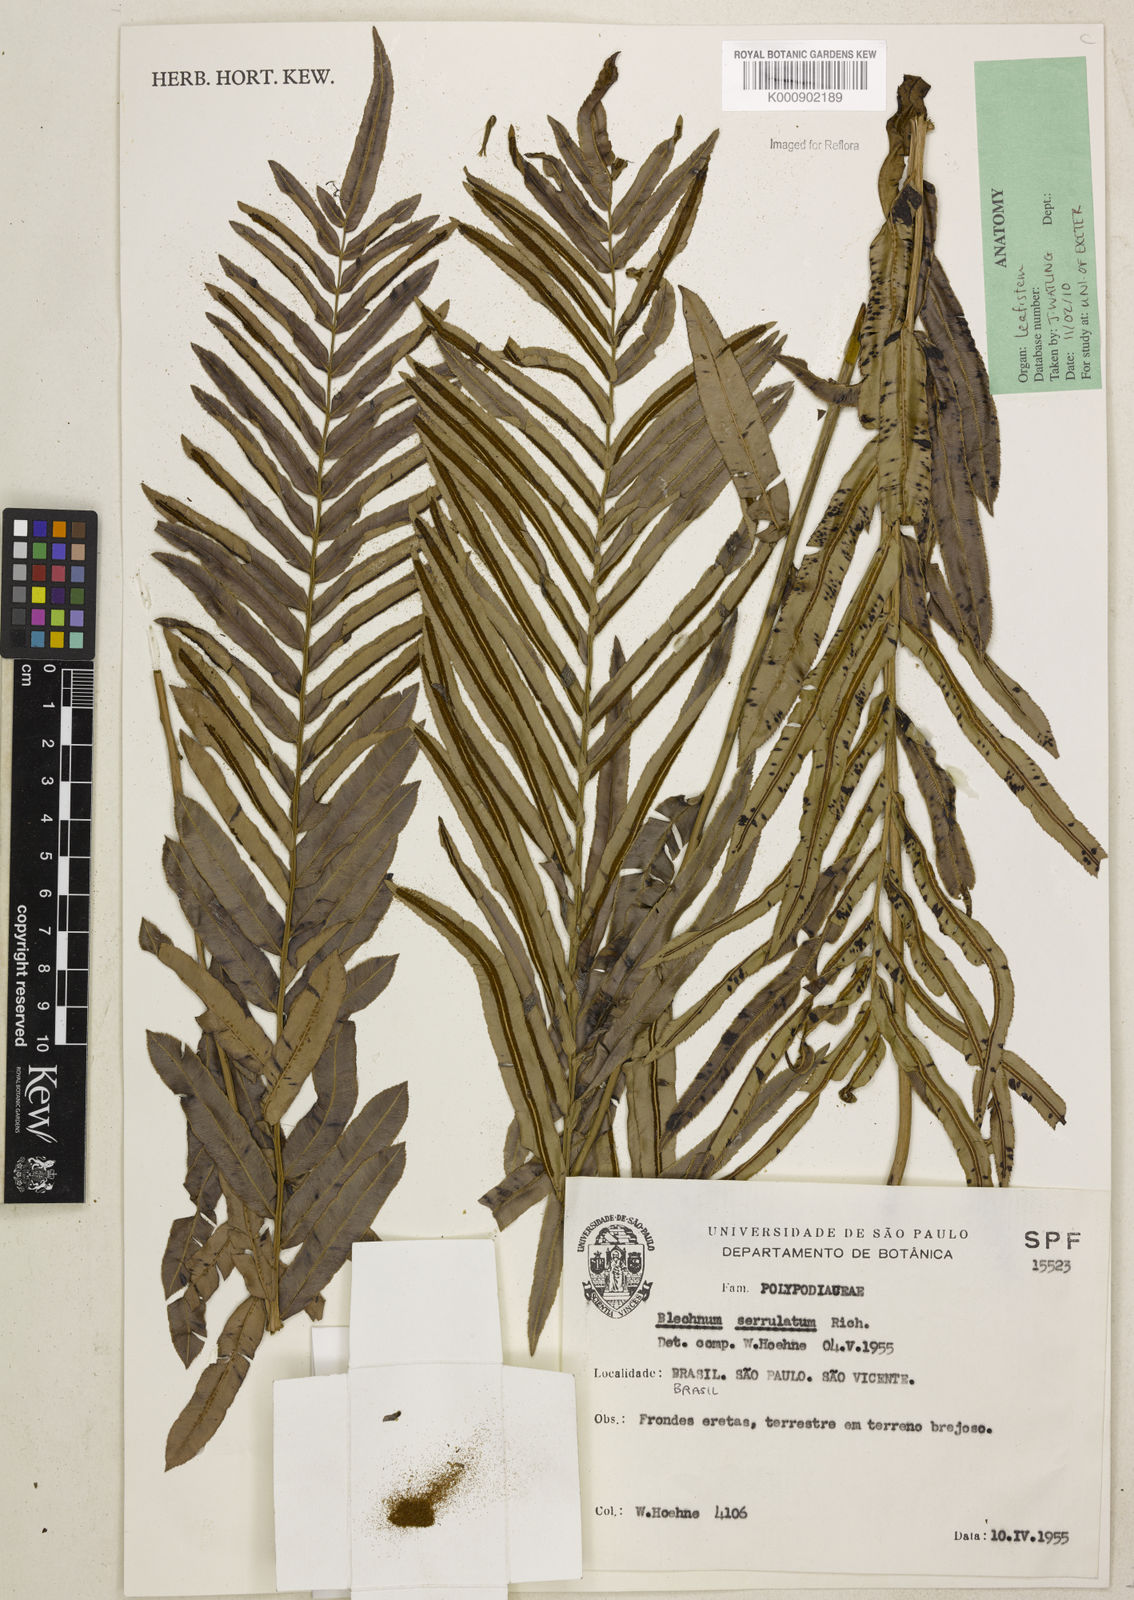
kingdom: Plantae
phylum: Tracheophyta
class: Polypodiopsida
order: Polypodiales
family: Blechnaceae
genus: Telmatoblechnum
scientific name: Telmatoblechnum serrulatum
